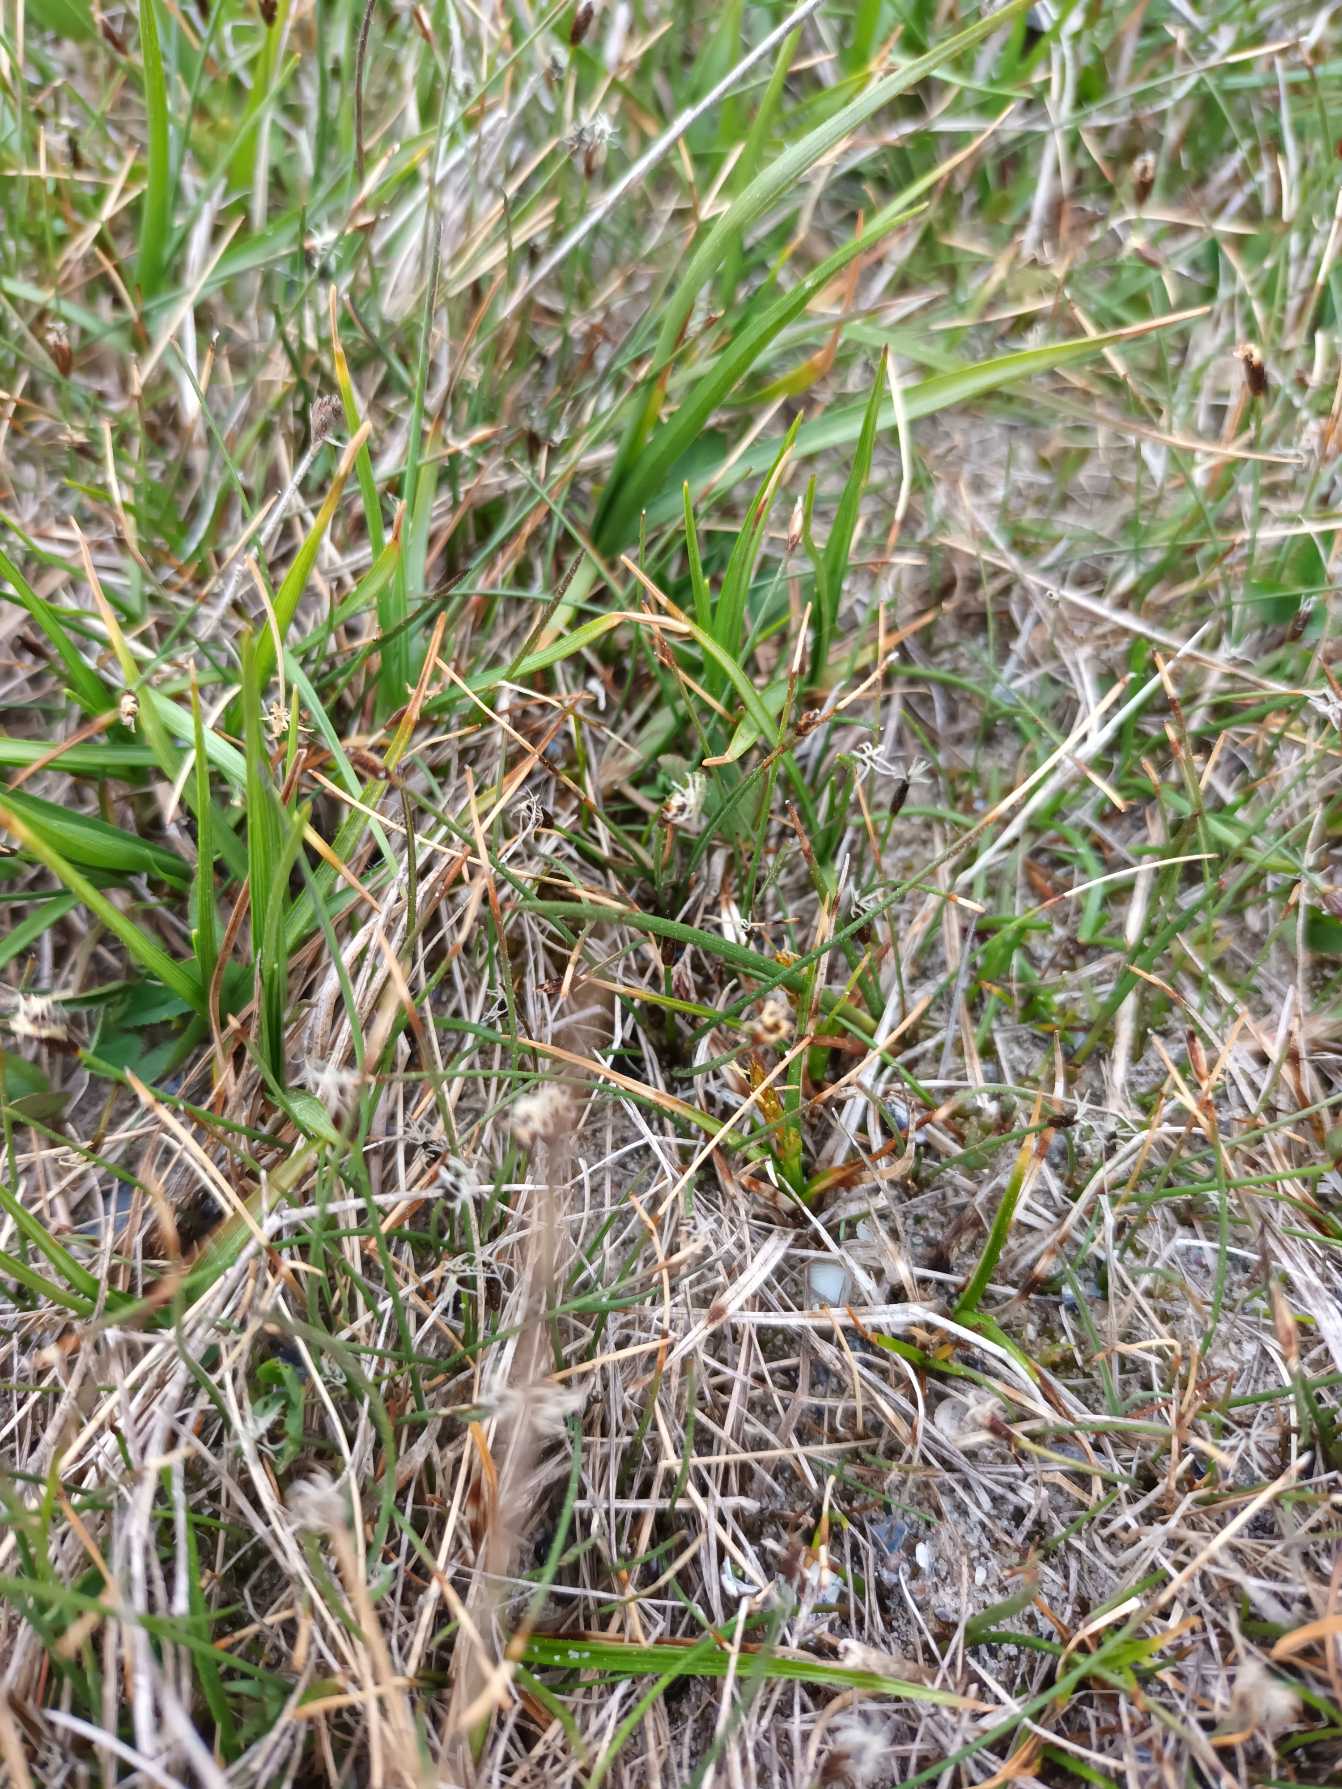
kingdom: Plantae
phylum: Tracheophyta
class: Liliopsida
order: Poales
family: Cyperaceae
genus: Eleocharis
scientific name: Eleocharis acicularis
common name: Nåle-sumpstrå
